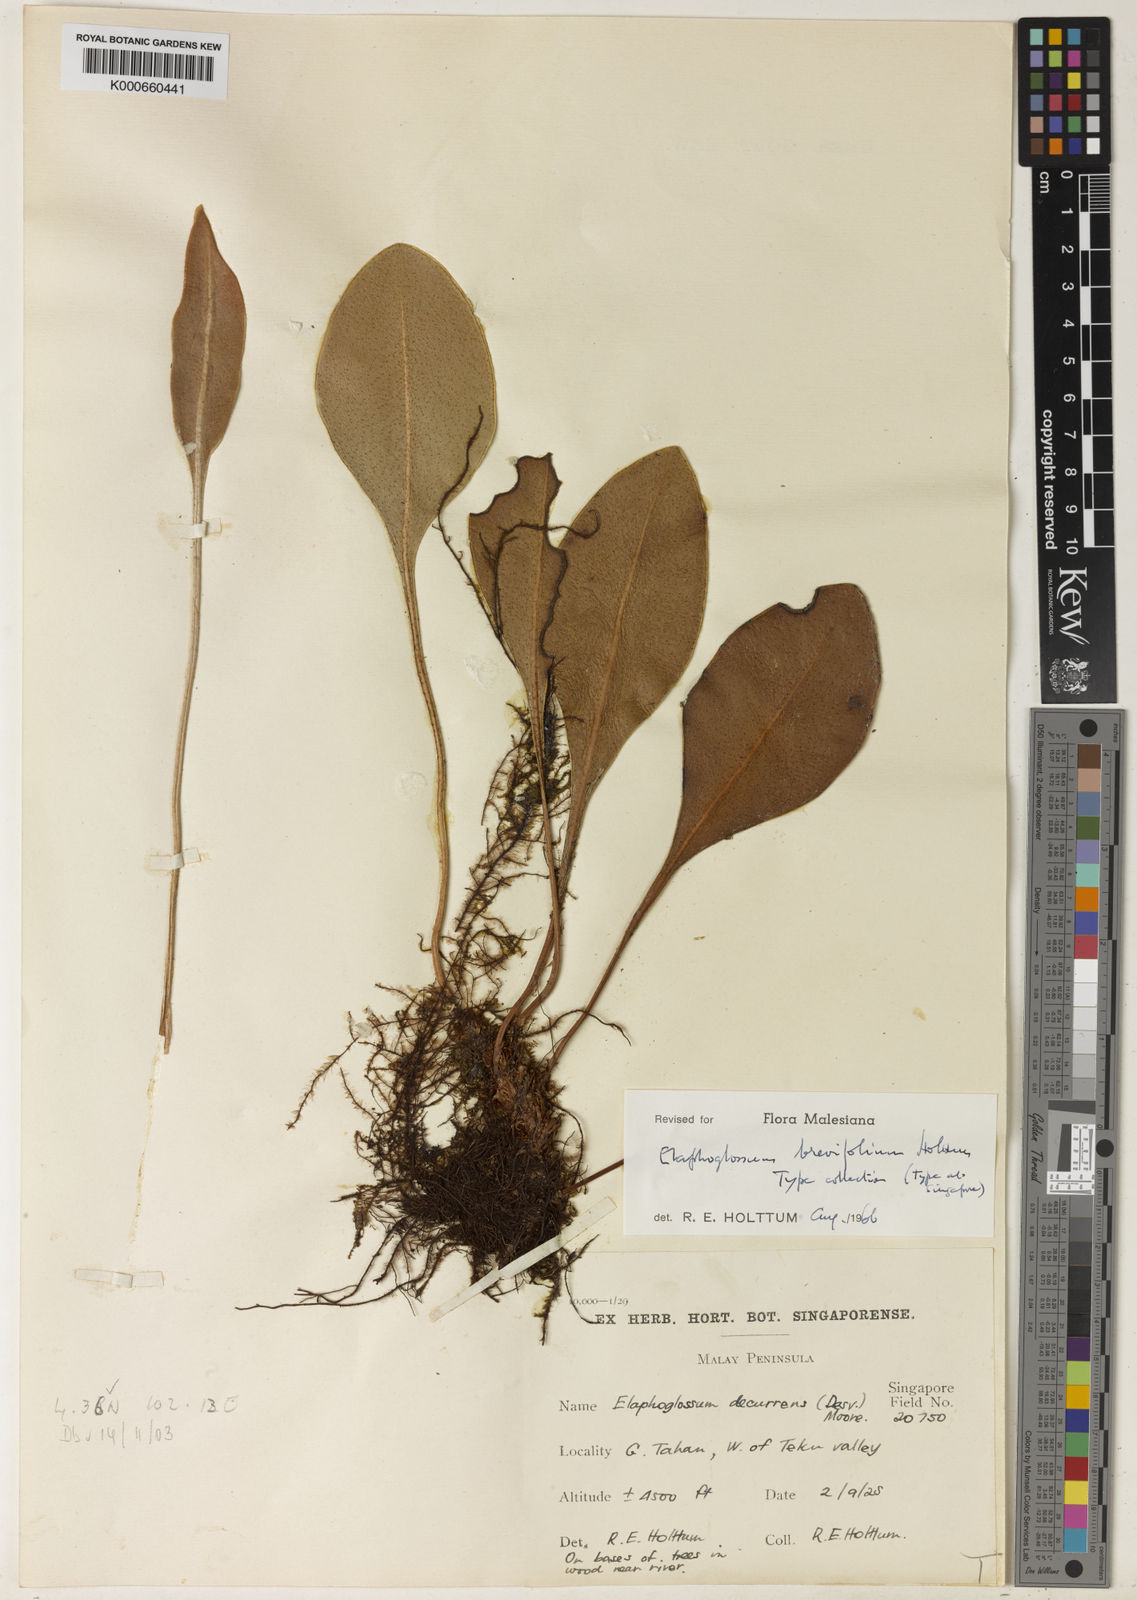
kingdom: Plantae
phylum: Tracheophyta
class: Polypodiopsida
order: Polypodiales
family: Dryopteridaceae
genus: Elaphoglossum
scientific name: Elaphoglossum brevifolium
